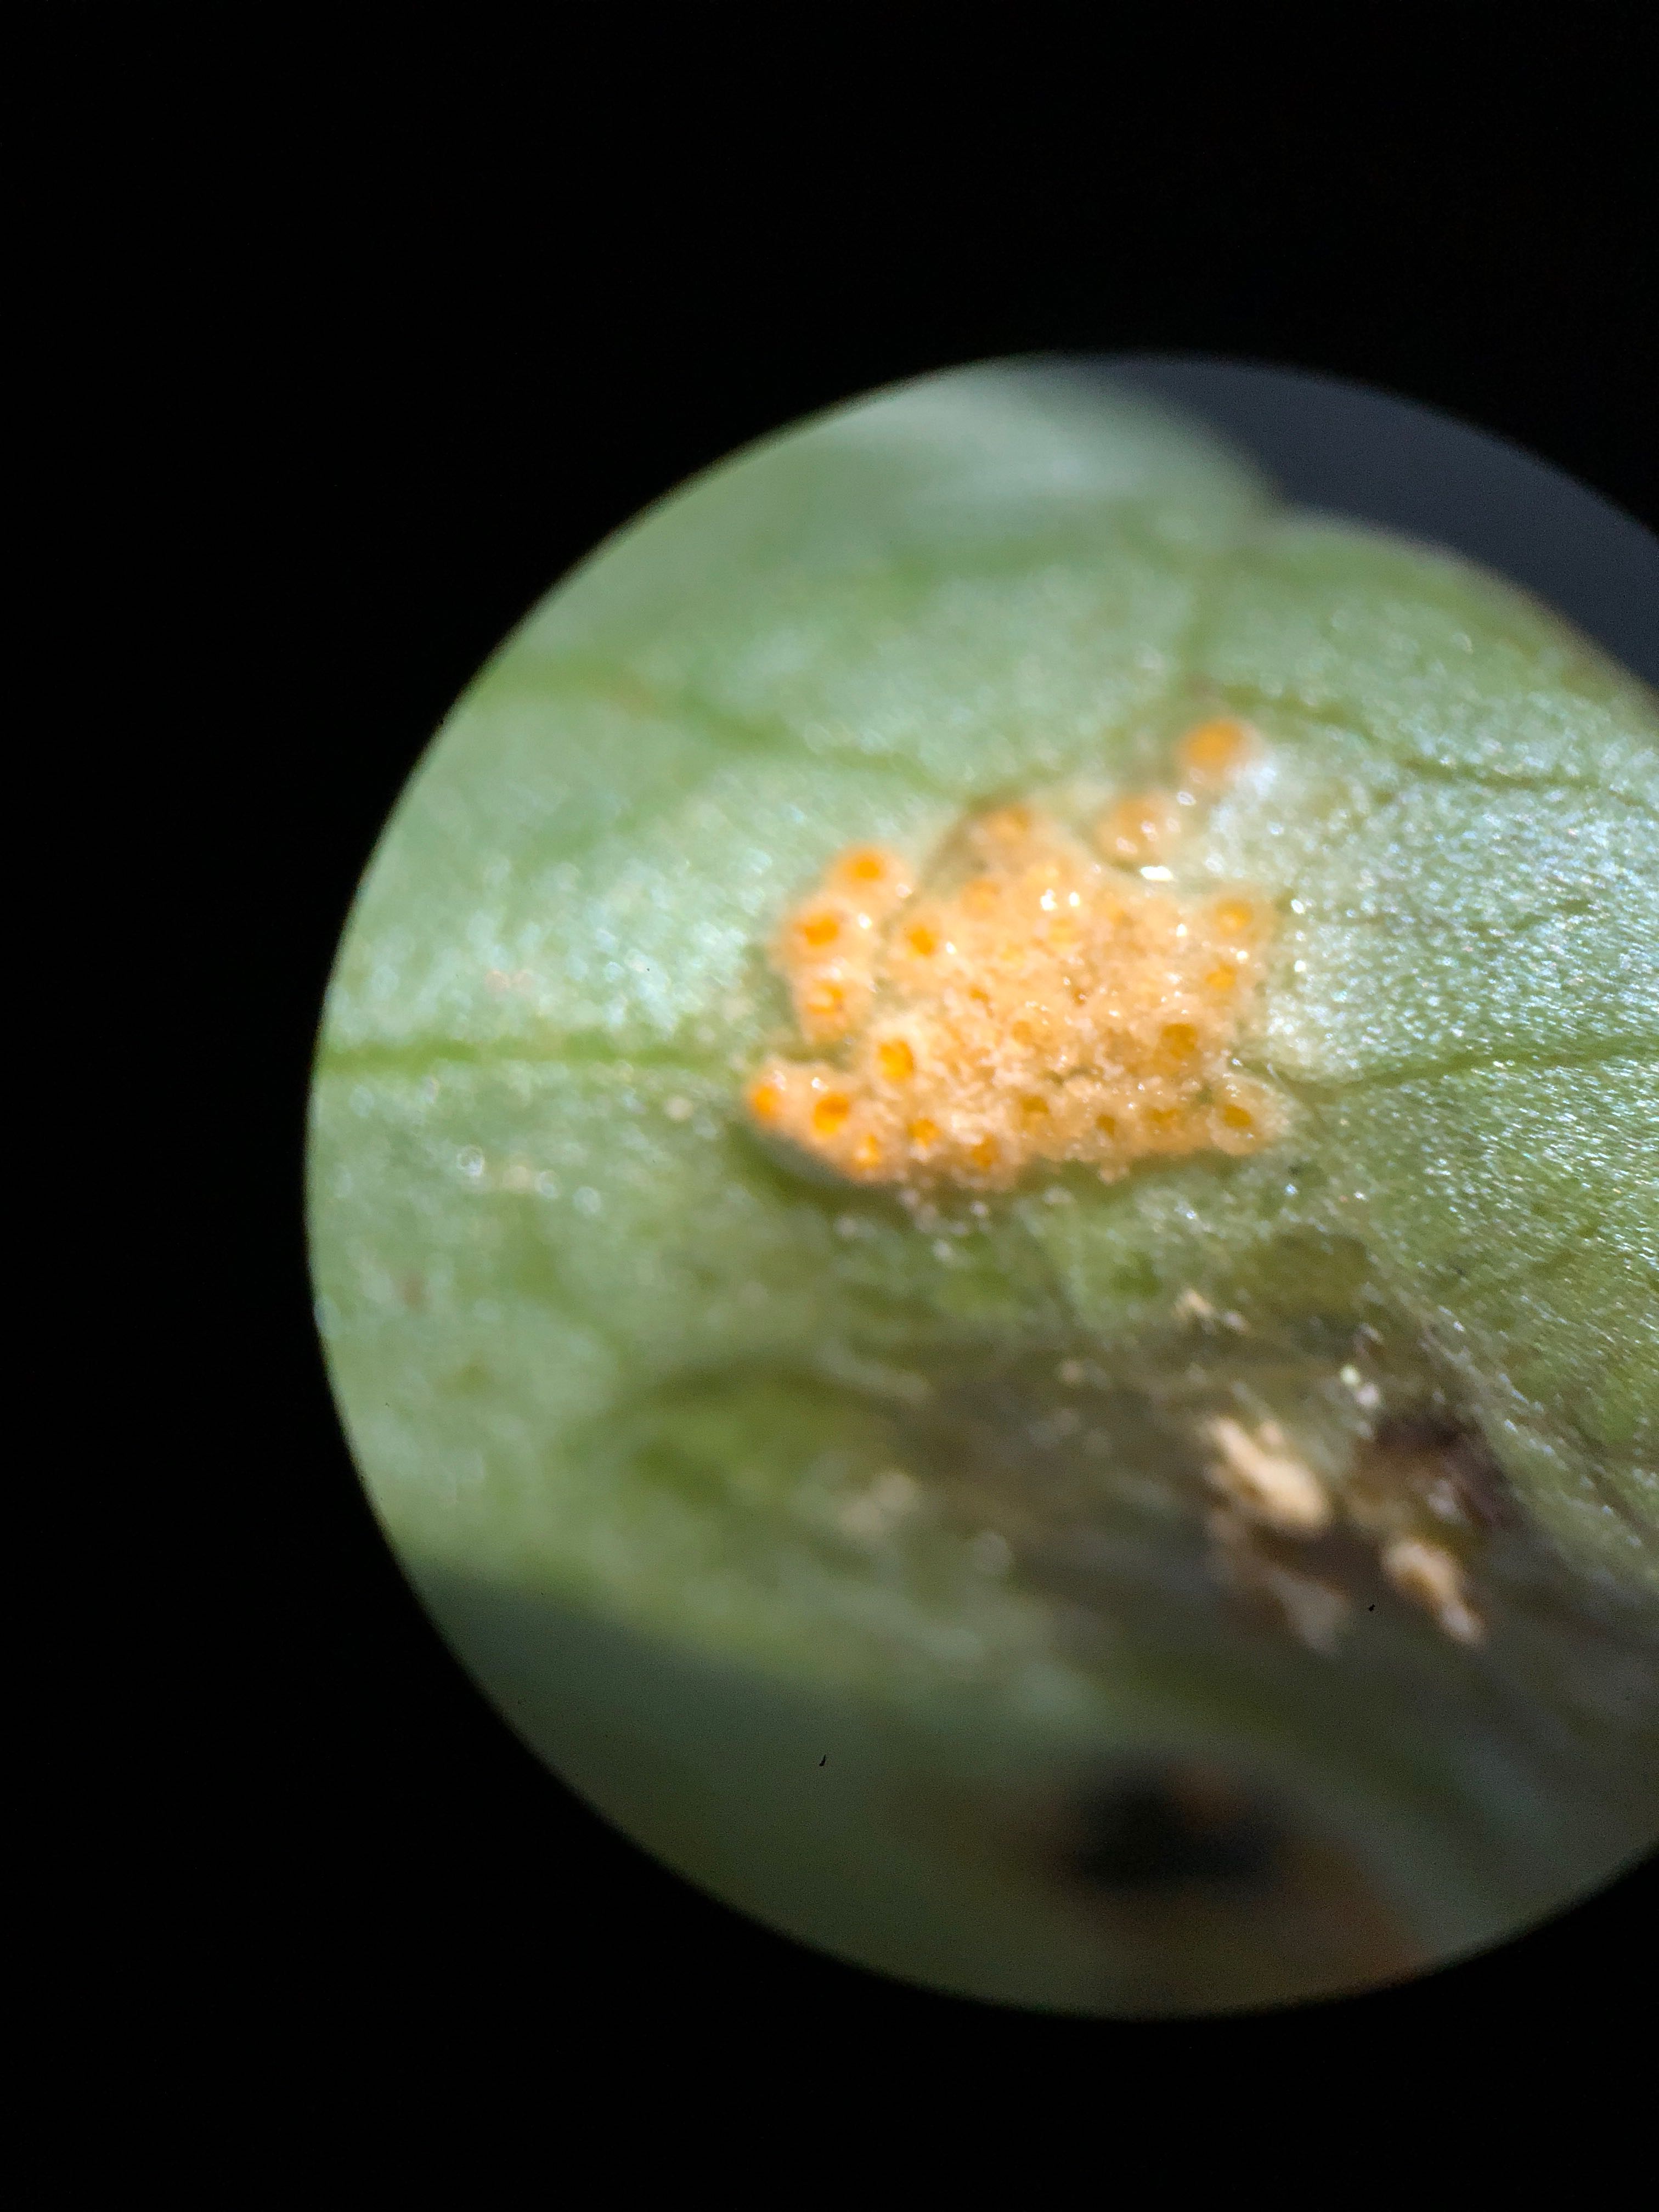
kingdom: Fungi
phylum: Basidiomycota
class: Pucciniomycetes
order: Pucciniales
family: Pucciniaceae
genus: Uromyces
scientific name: Uromyces dactylidis
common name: ranunkel-encellerust
